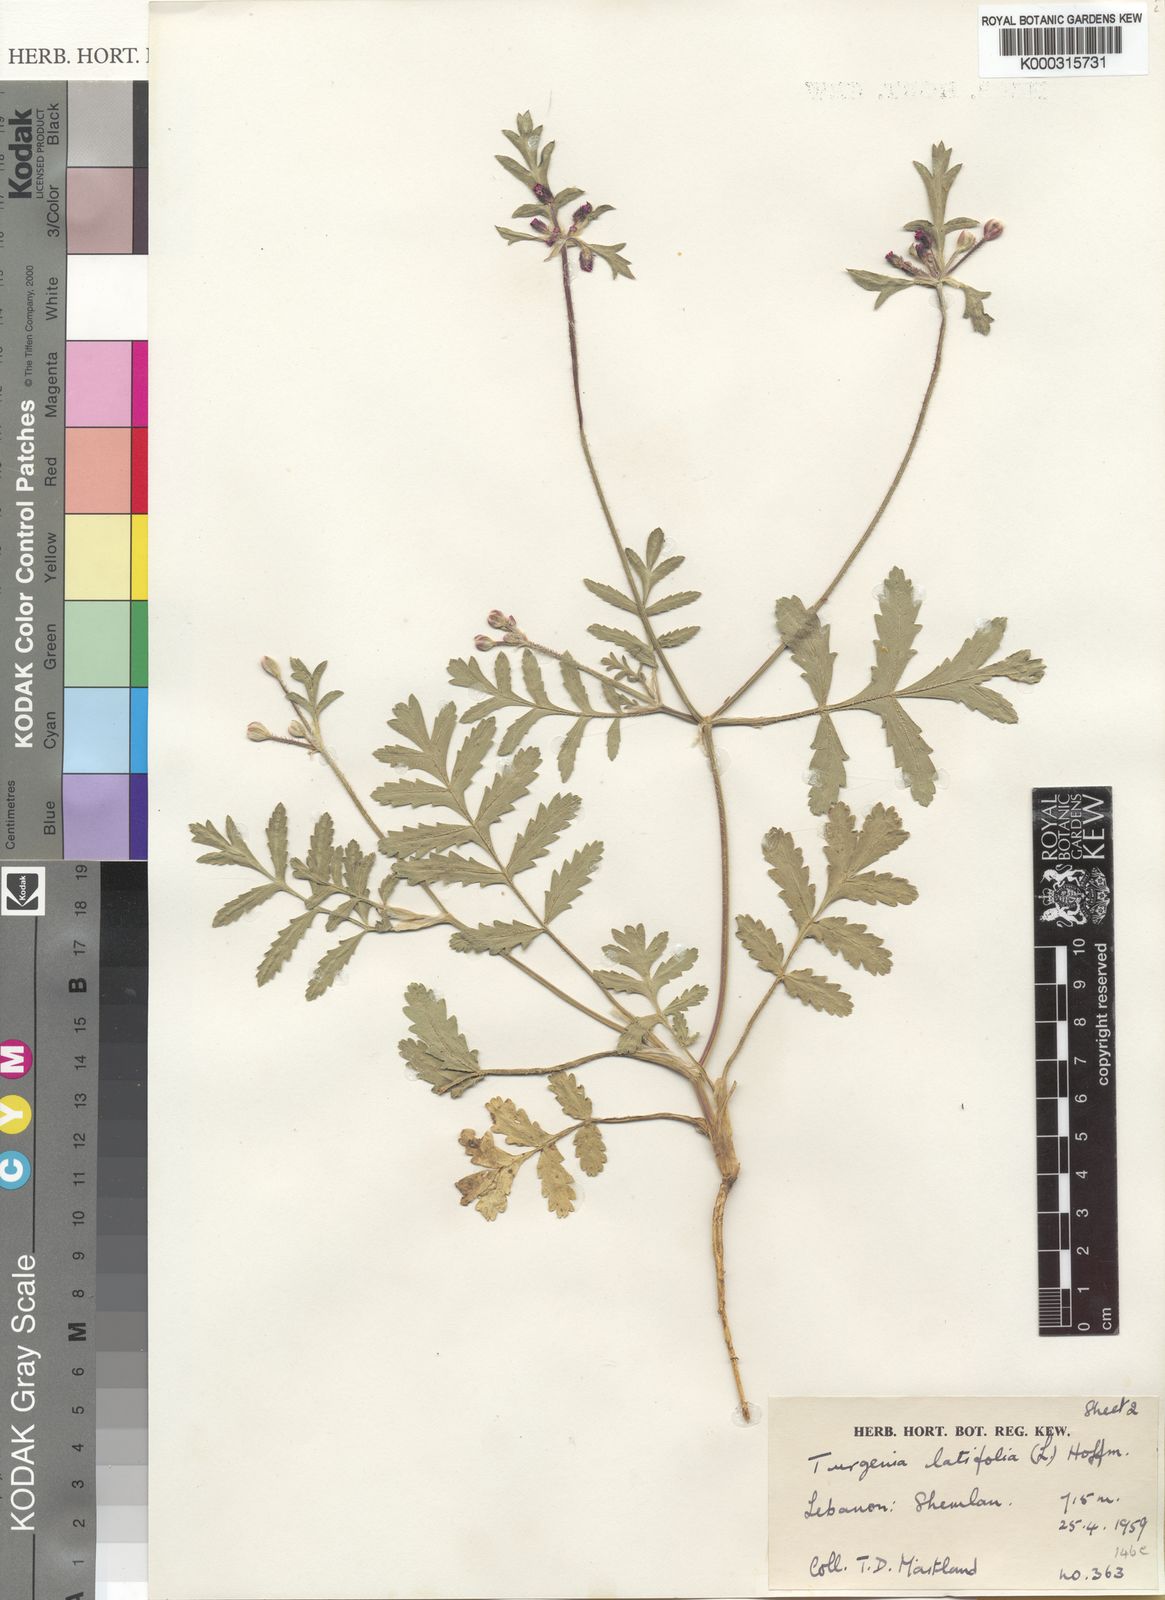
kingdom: Plantae
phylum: Tracheophyta
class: Magnoliopsida
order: Apiales
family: Apiaceae
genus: Turgenia
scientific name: Turgenia latifolia
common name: Greater bur-parsley
